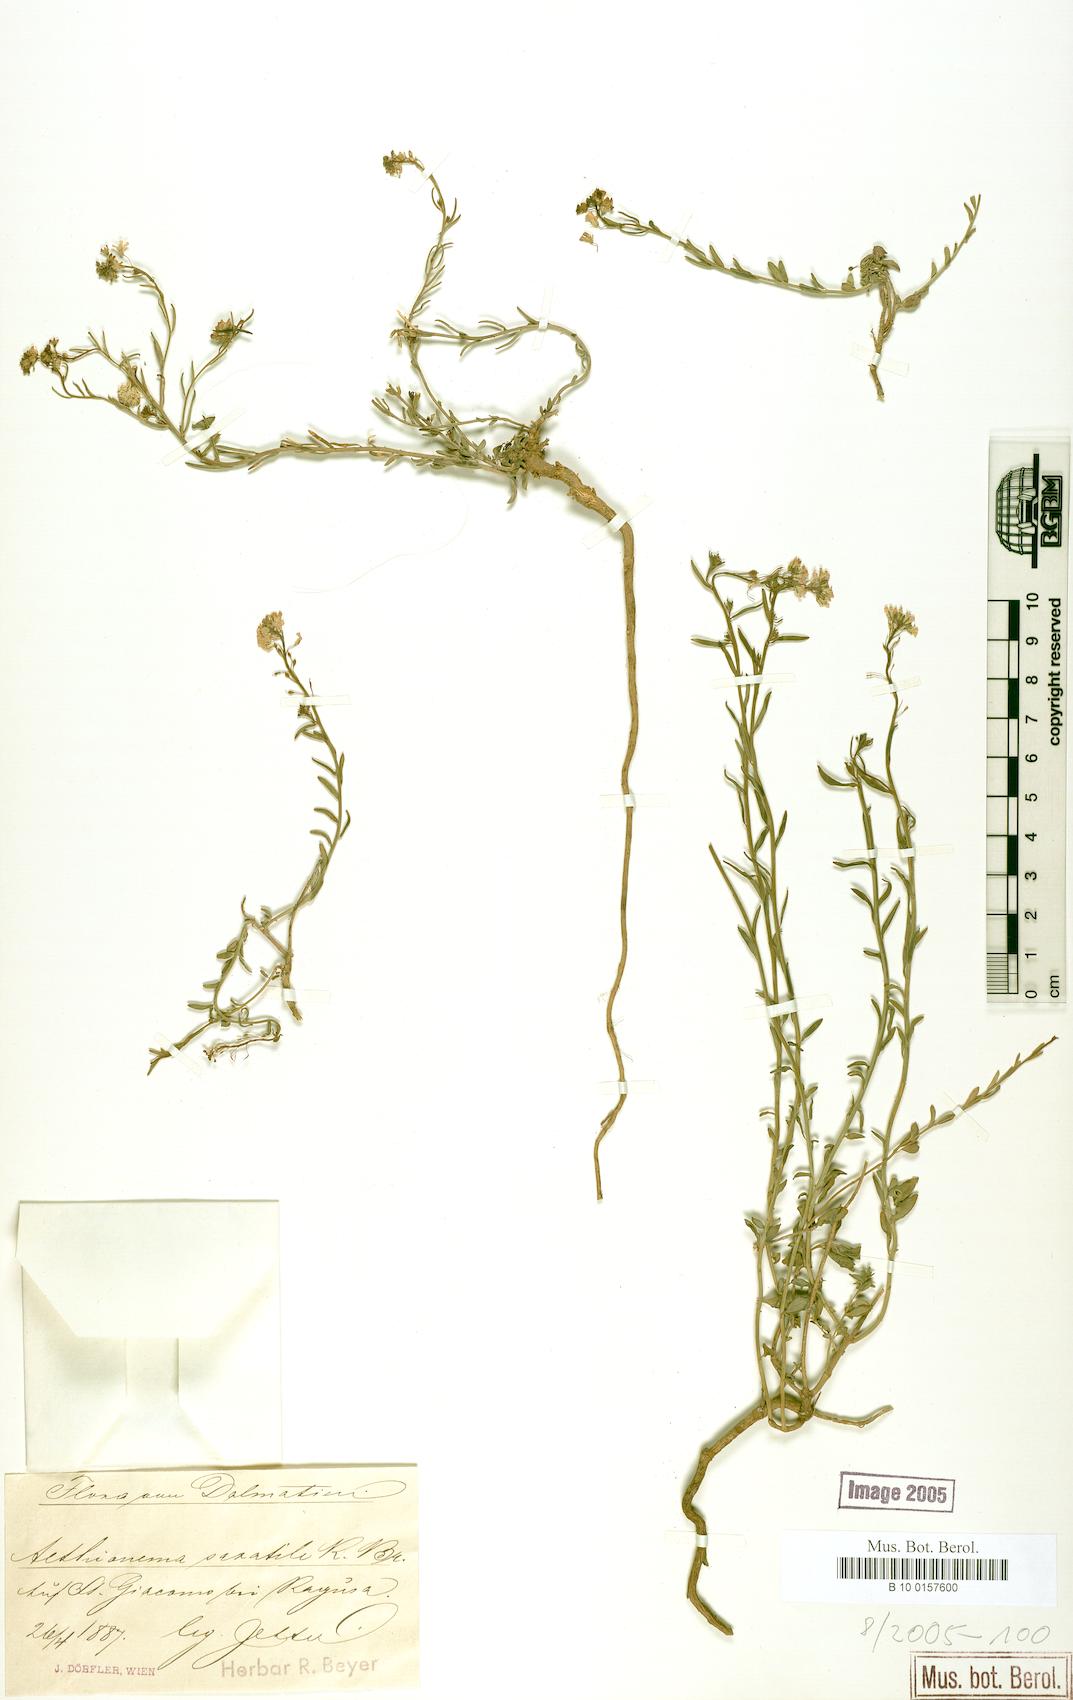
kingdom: Plantae
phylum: Tracheophyta
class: Magnoliopsida
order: Brassicales
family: Brassicaceae
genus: Aethionema
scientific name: Aethionema saxatile
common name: Burnt candytuft
